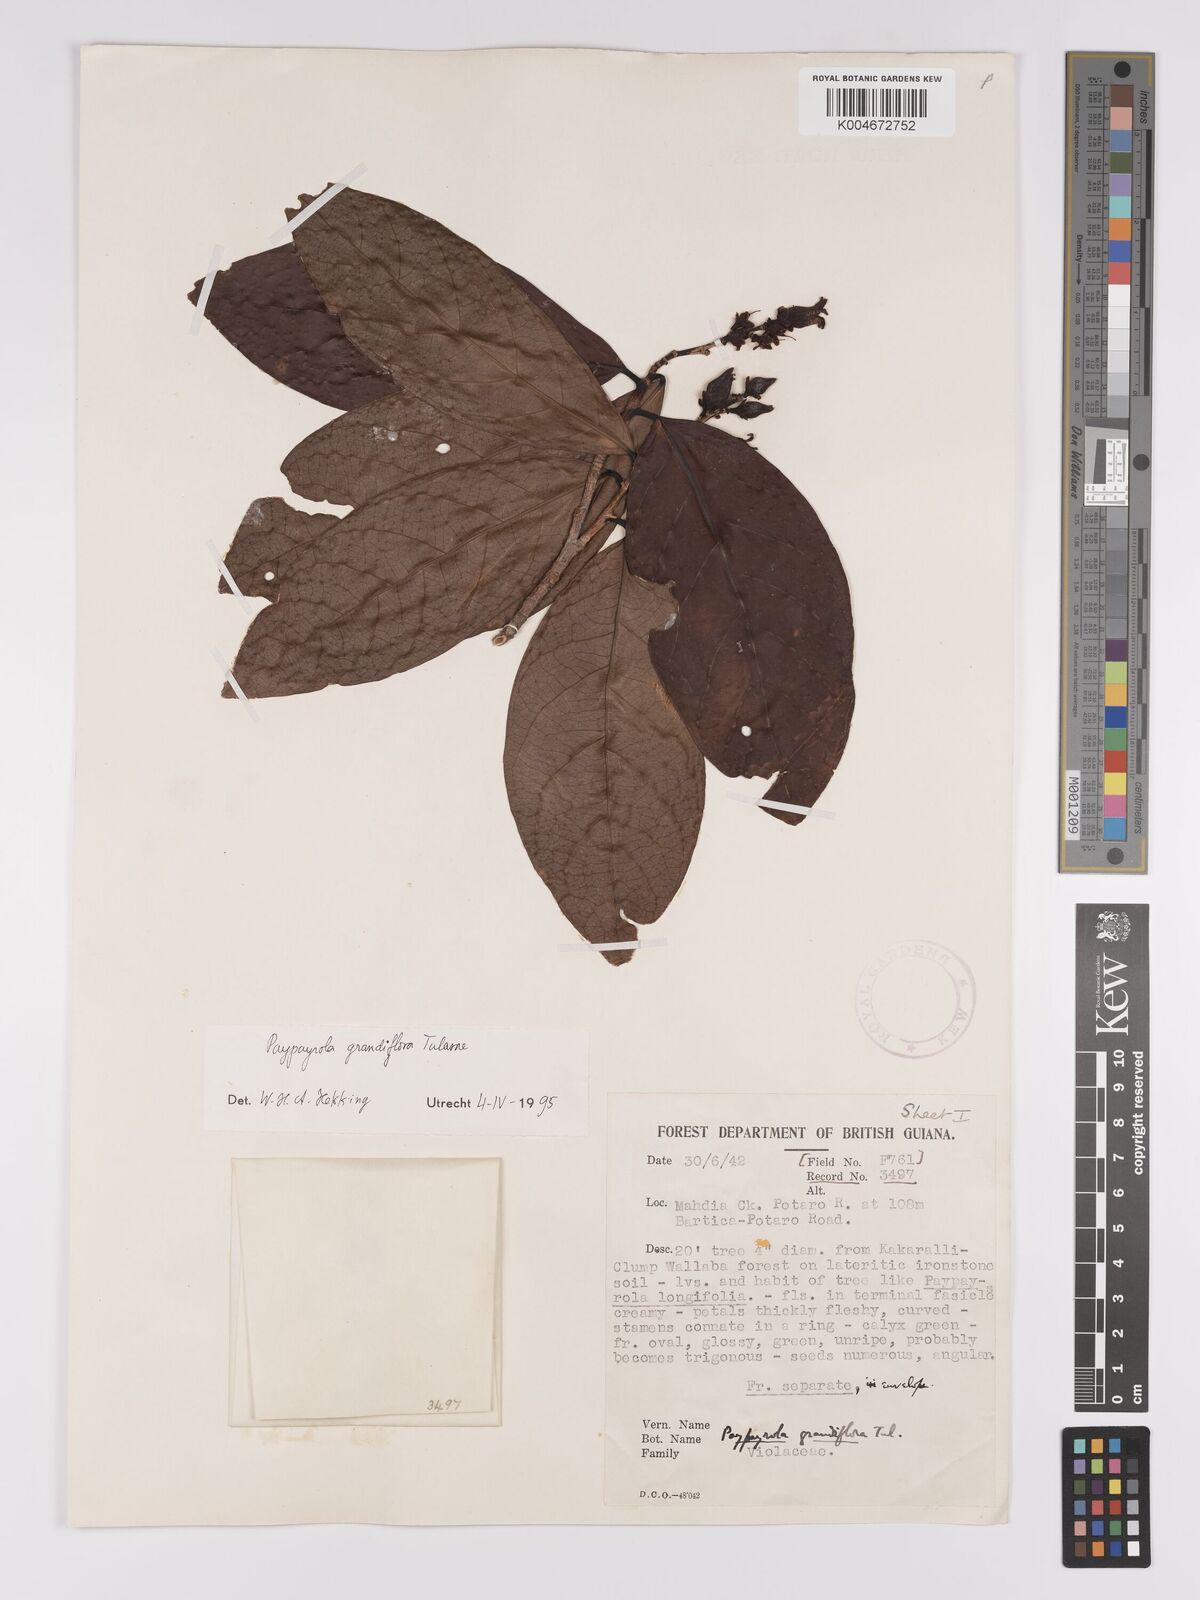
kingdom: Plantae
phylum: Tracheophyta
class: Magnoliopsida
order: Malpighiales
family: Violaceae
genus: Paypayrola
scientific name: Paypayrola grandiflora
